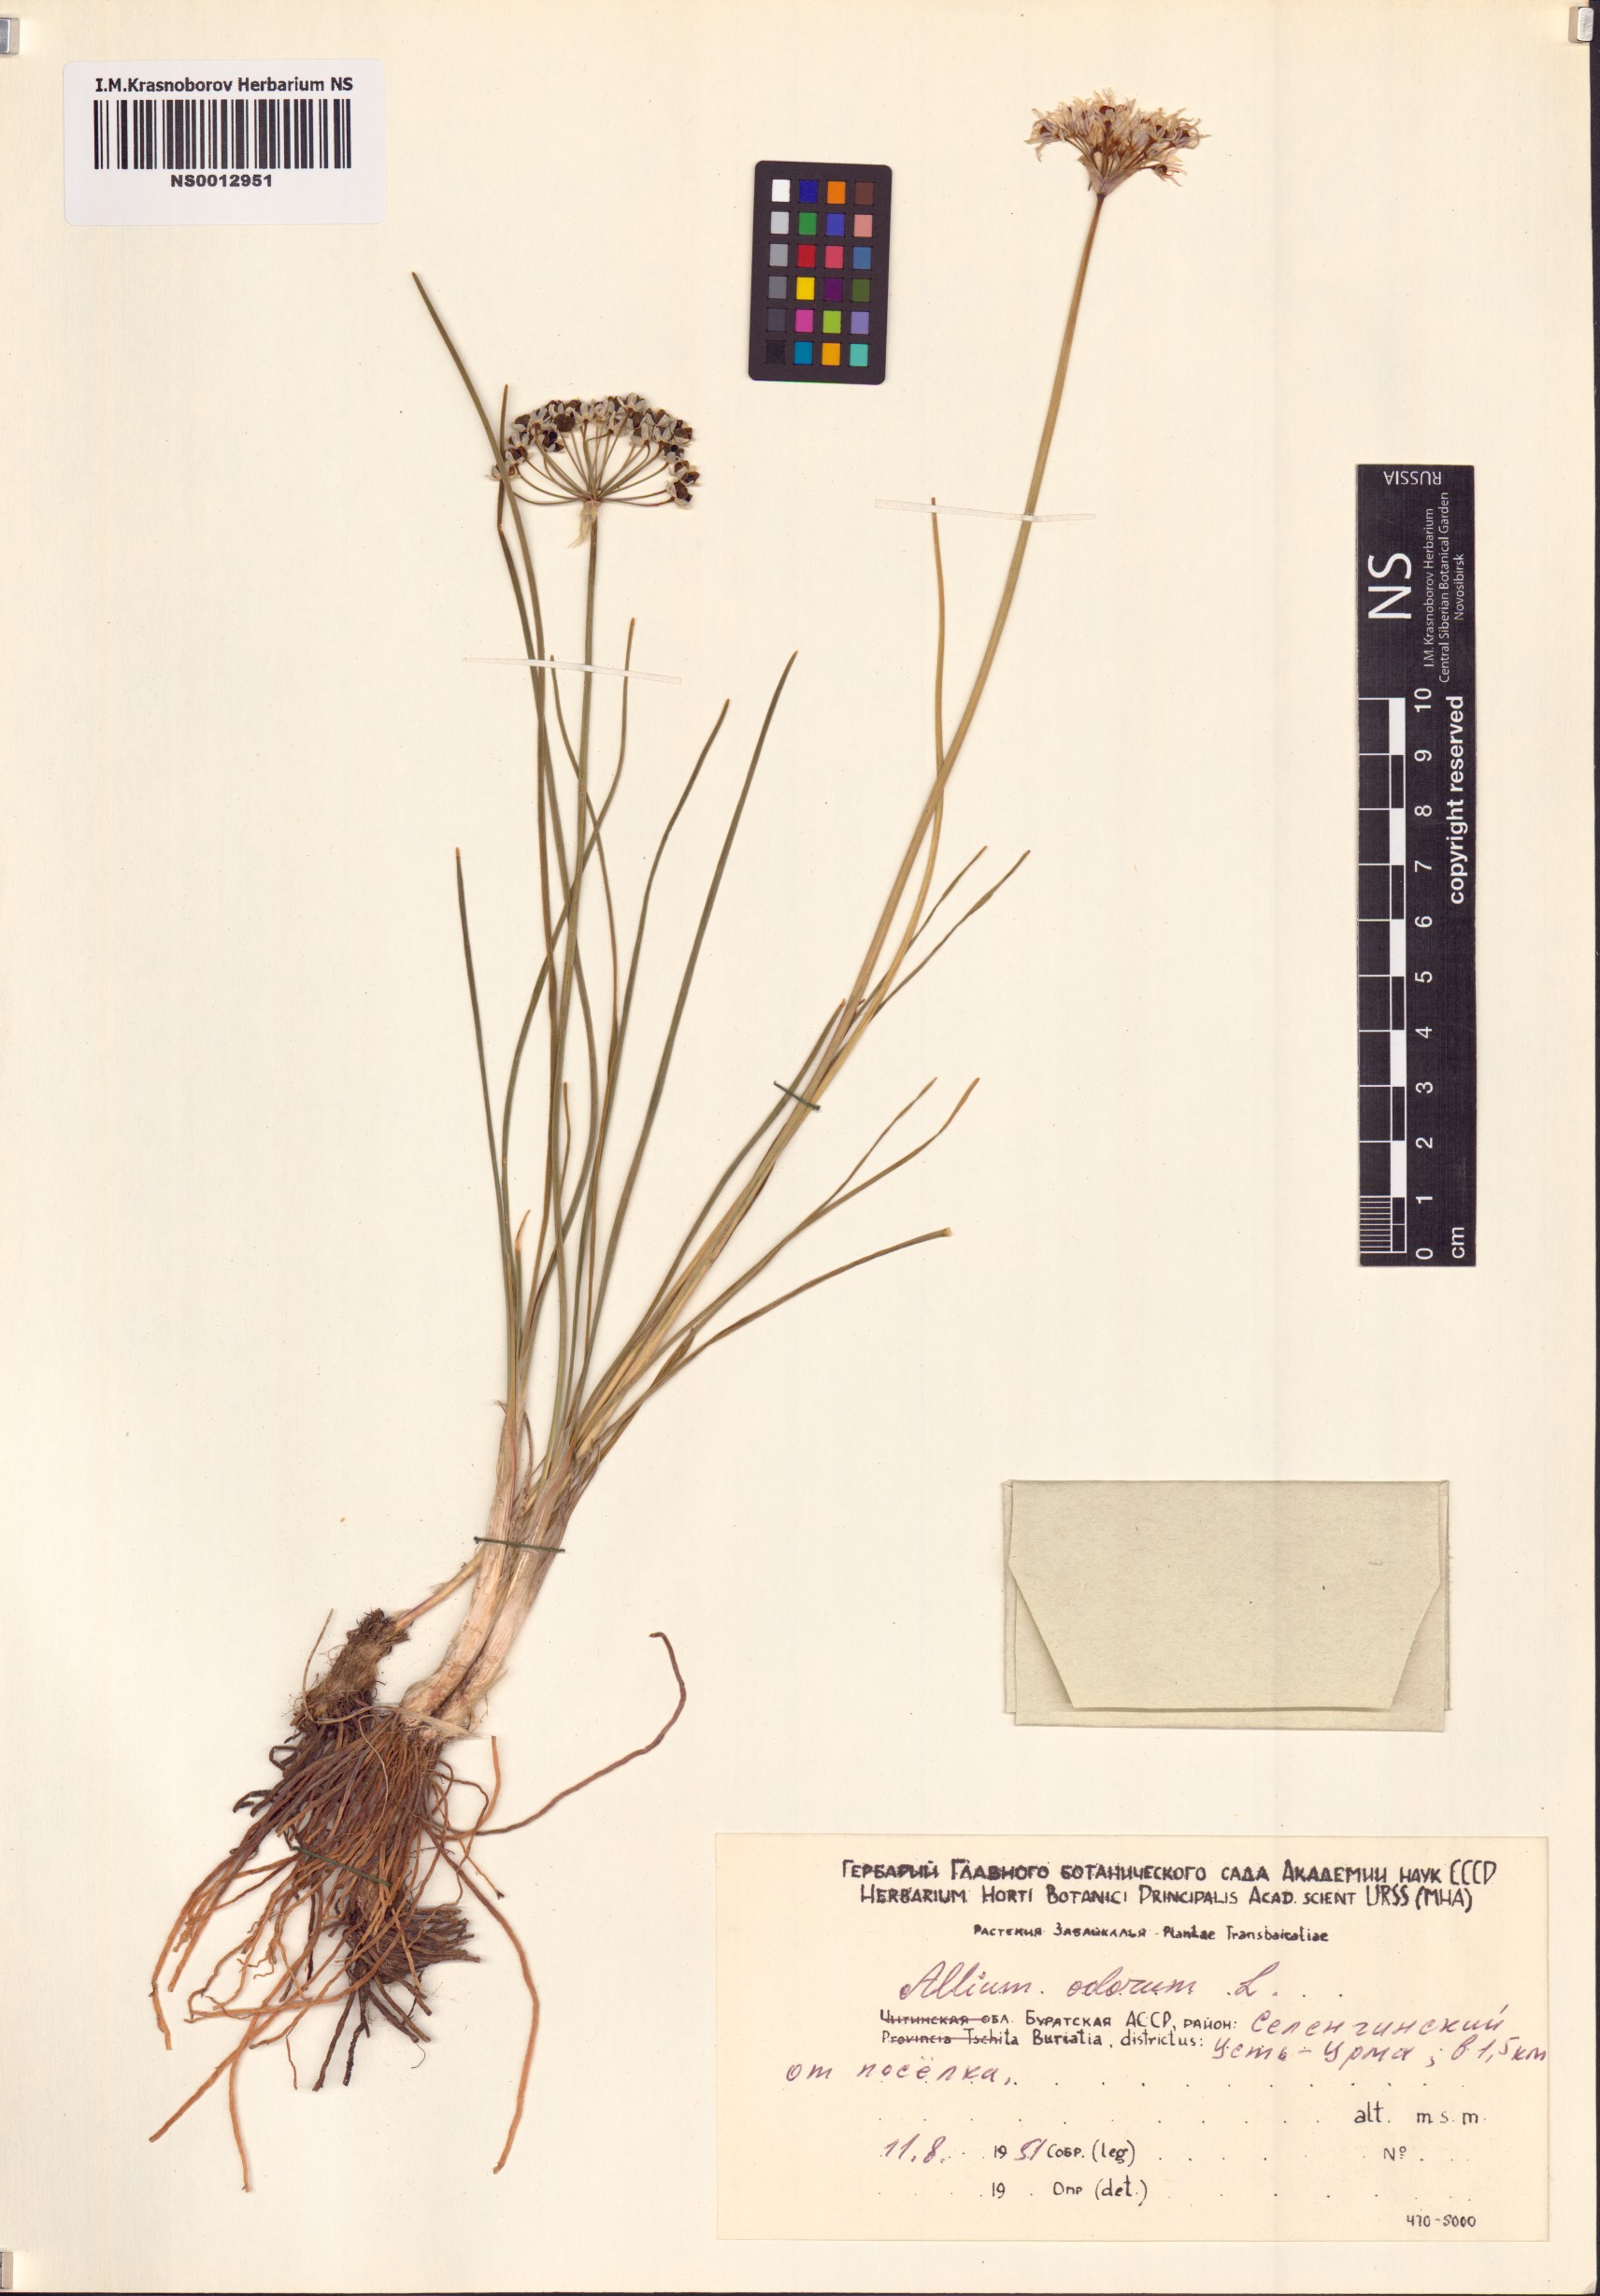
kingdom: Plantae
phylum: Tracheophyta
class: Liliopsida
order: Asparagales
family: Amaryllidaceae
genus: Allium
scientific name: Allium ramosum
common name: Fragrant garlic
